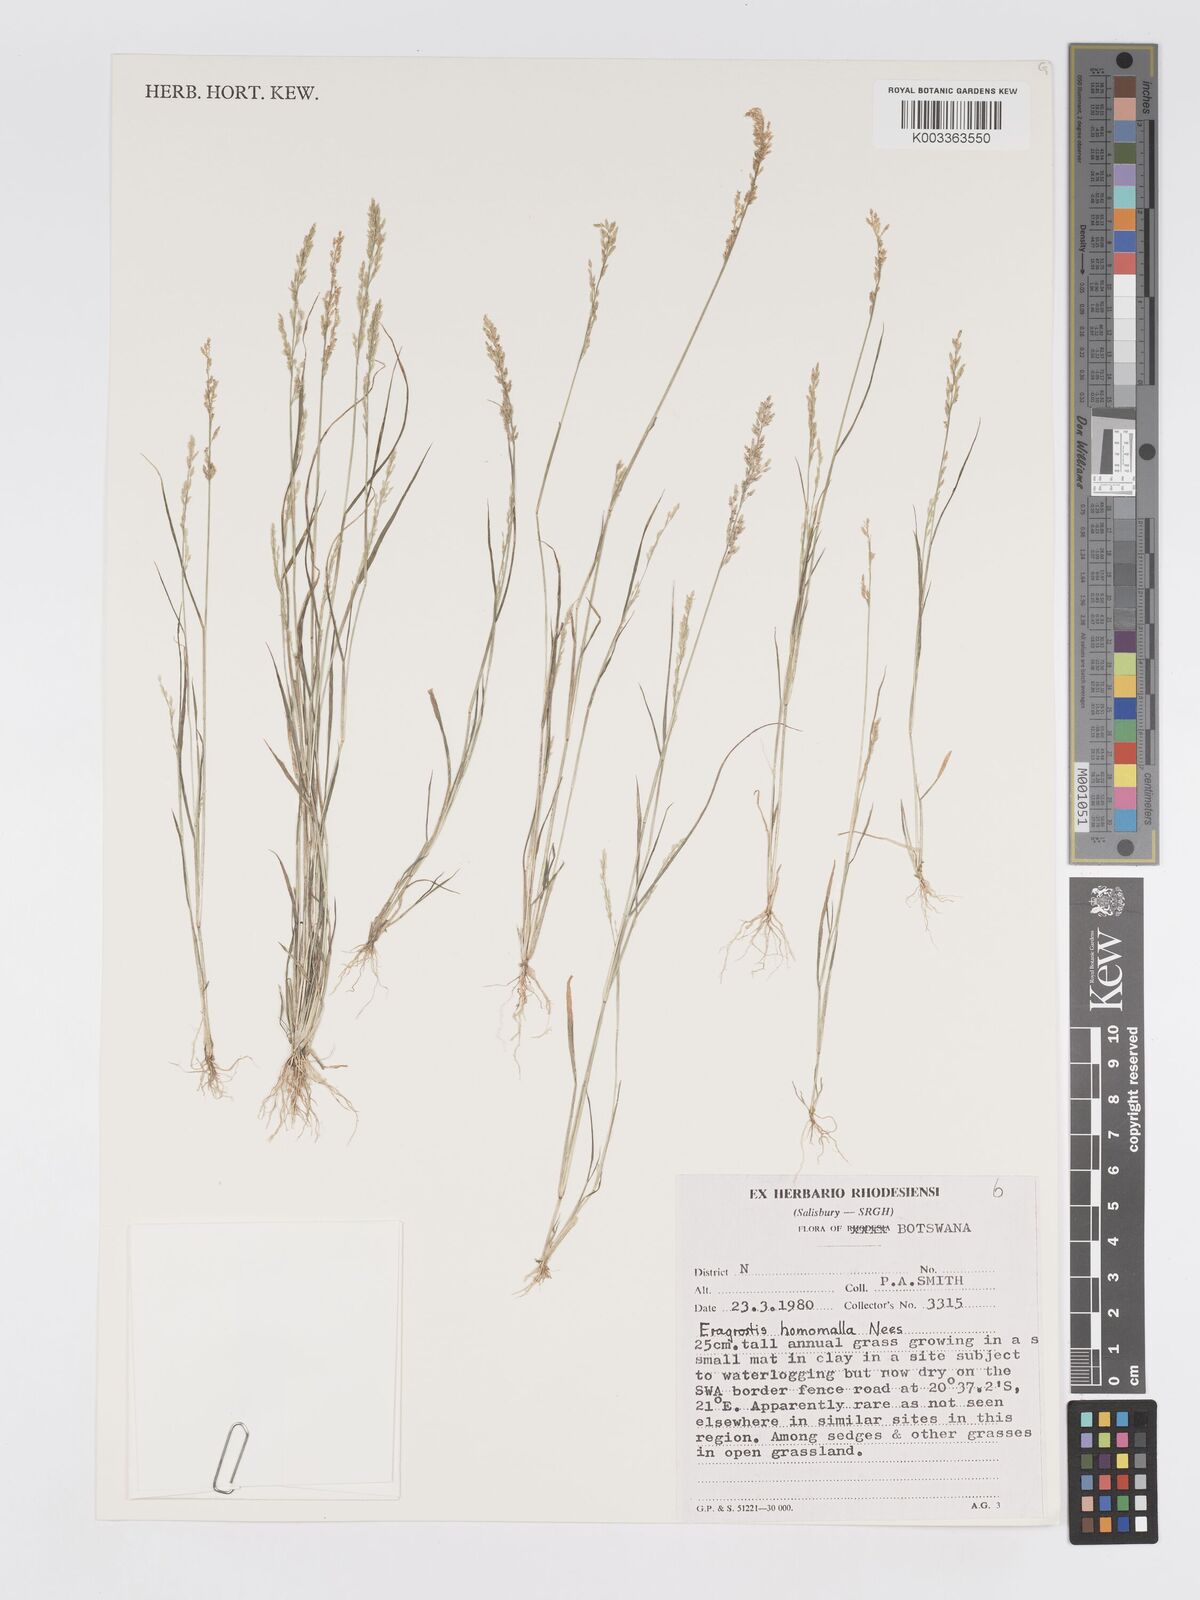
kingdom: Plantae
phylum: Tracheophyta
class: Liliopsida
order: Poales
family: Poaceae
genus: Eragrostis
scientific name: Eragrostis homomalla
